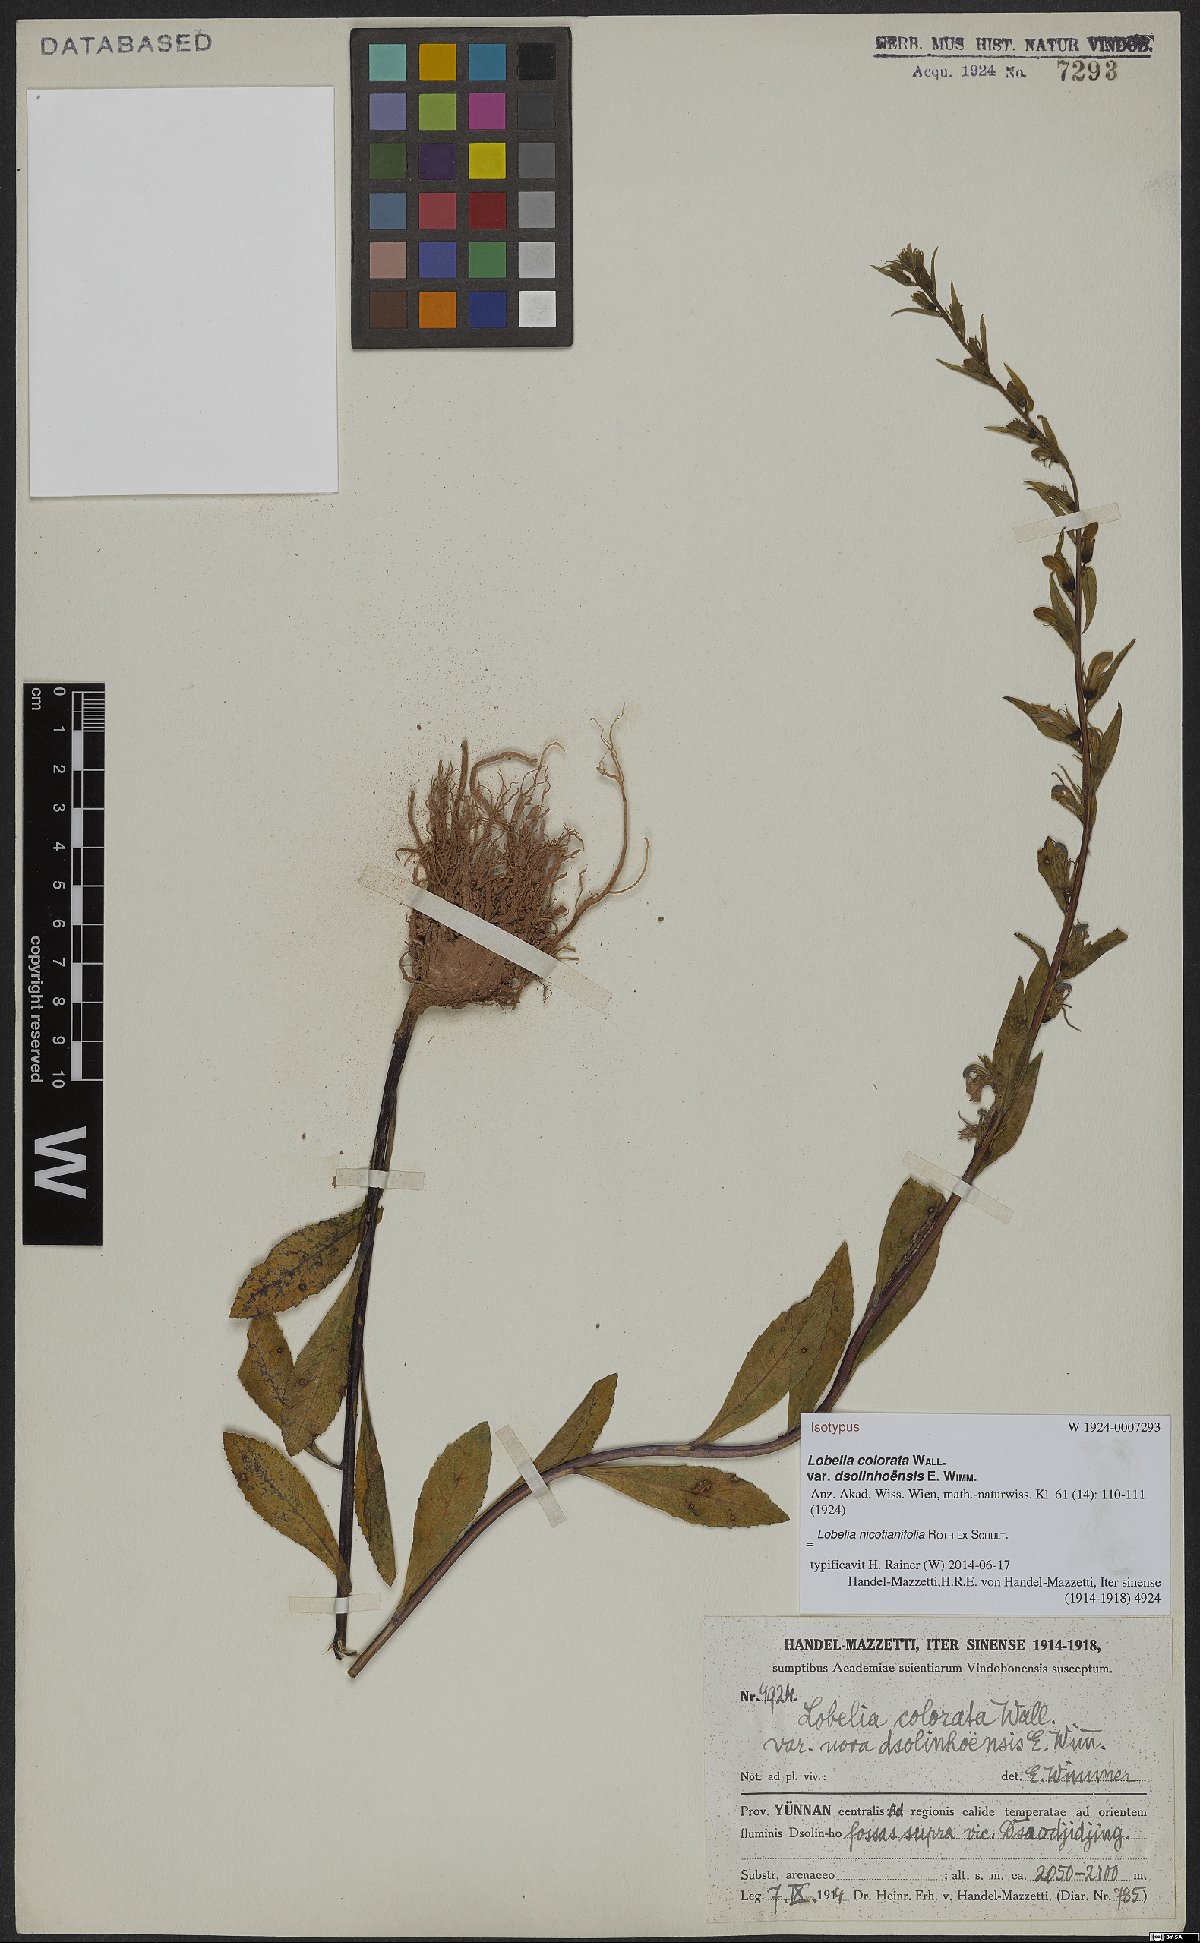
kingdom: Plantae
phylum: Tracheophyta
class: Magnoliopsida
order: Asterales
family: Campanulaceae
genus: Lobelia
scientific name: Lobelia nicotianifolia
